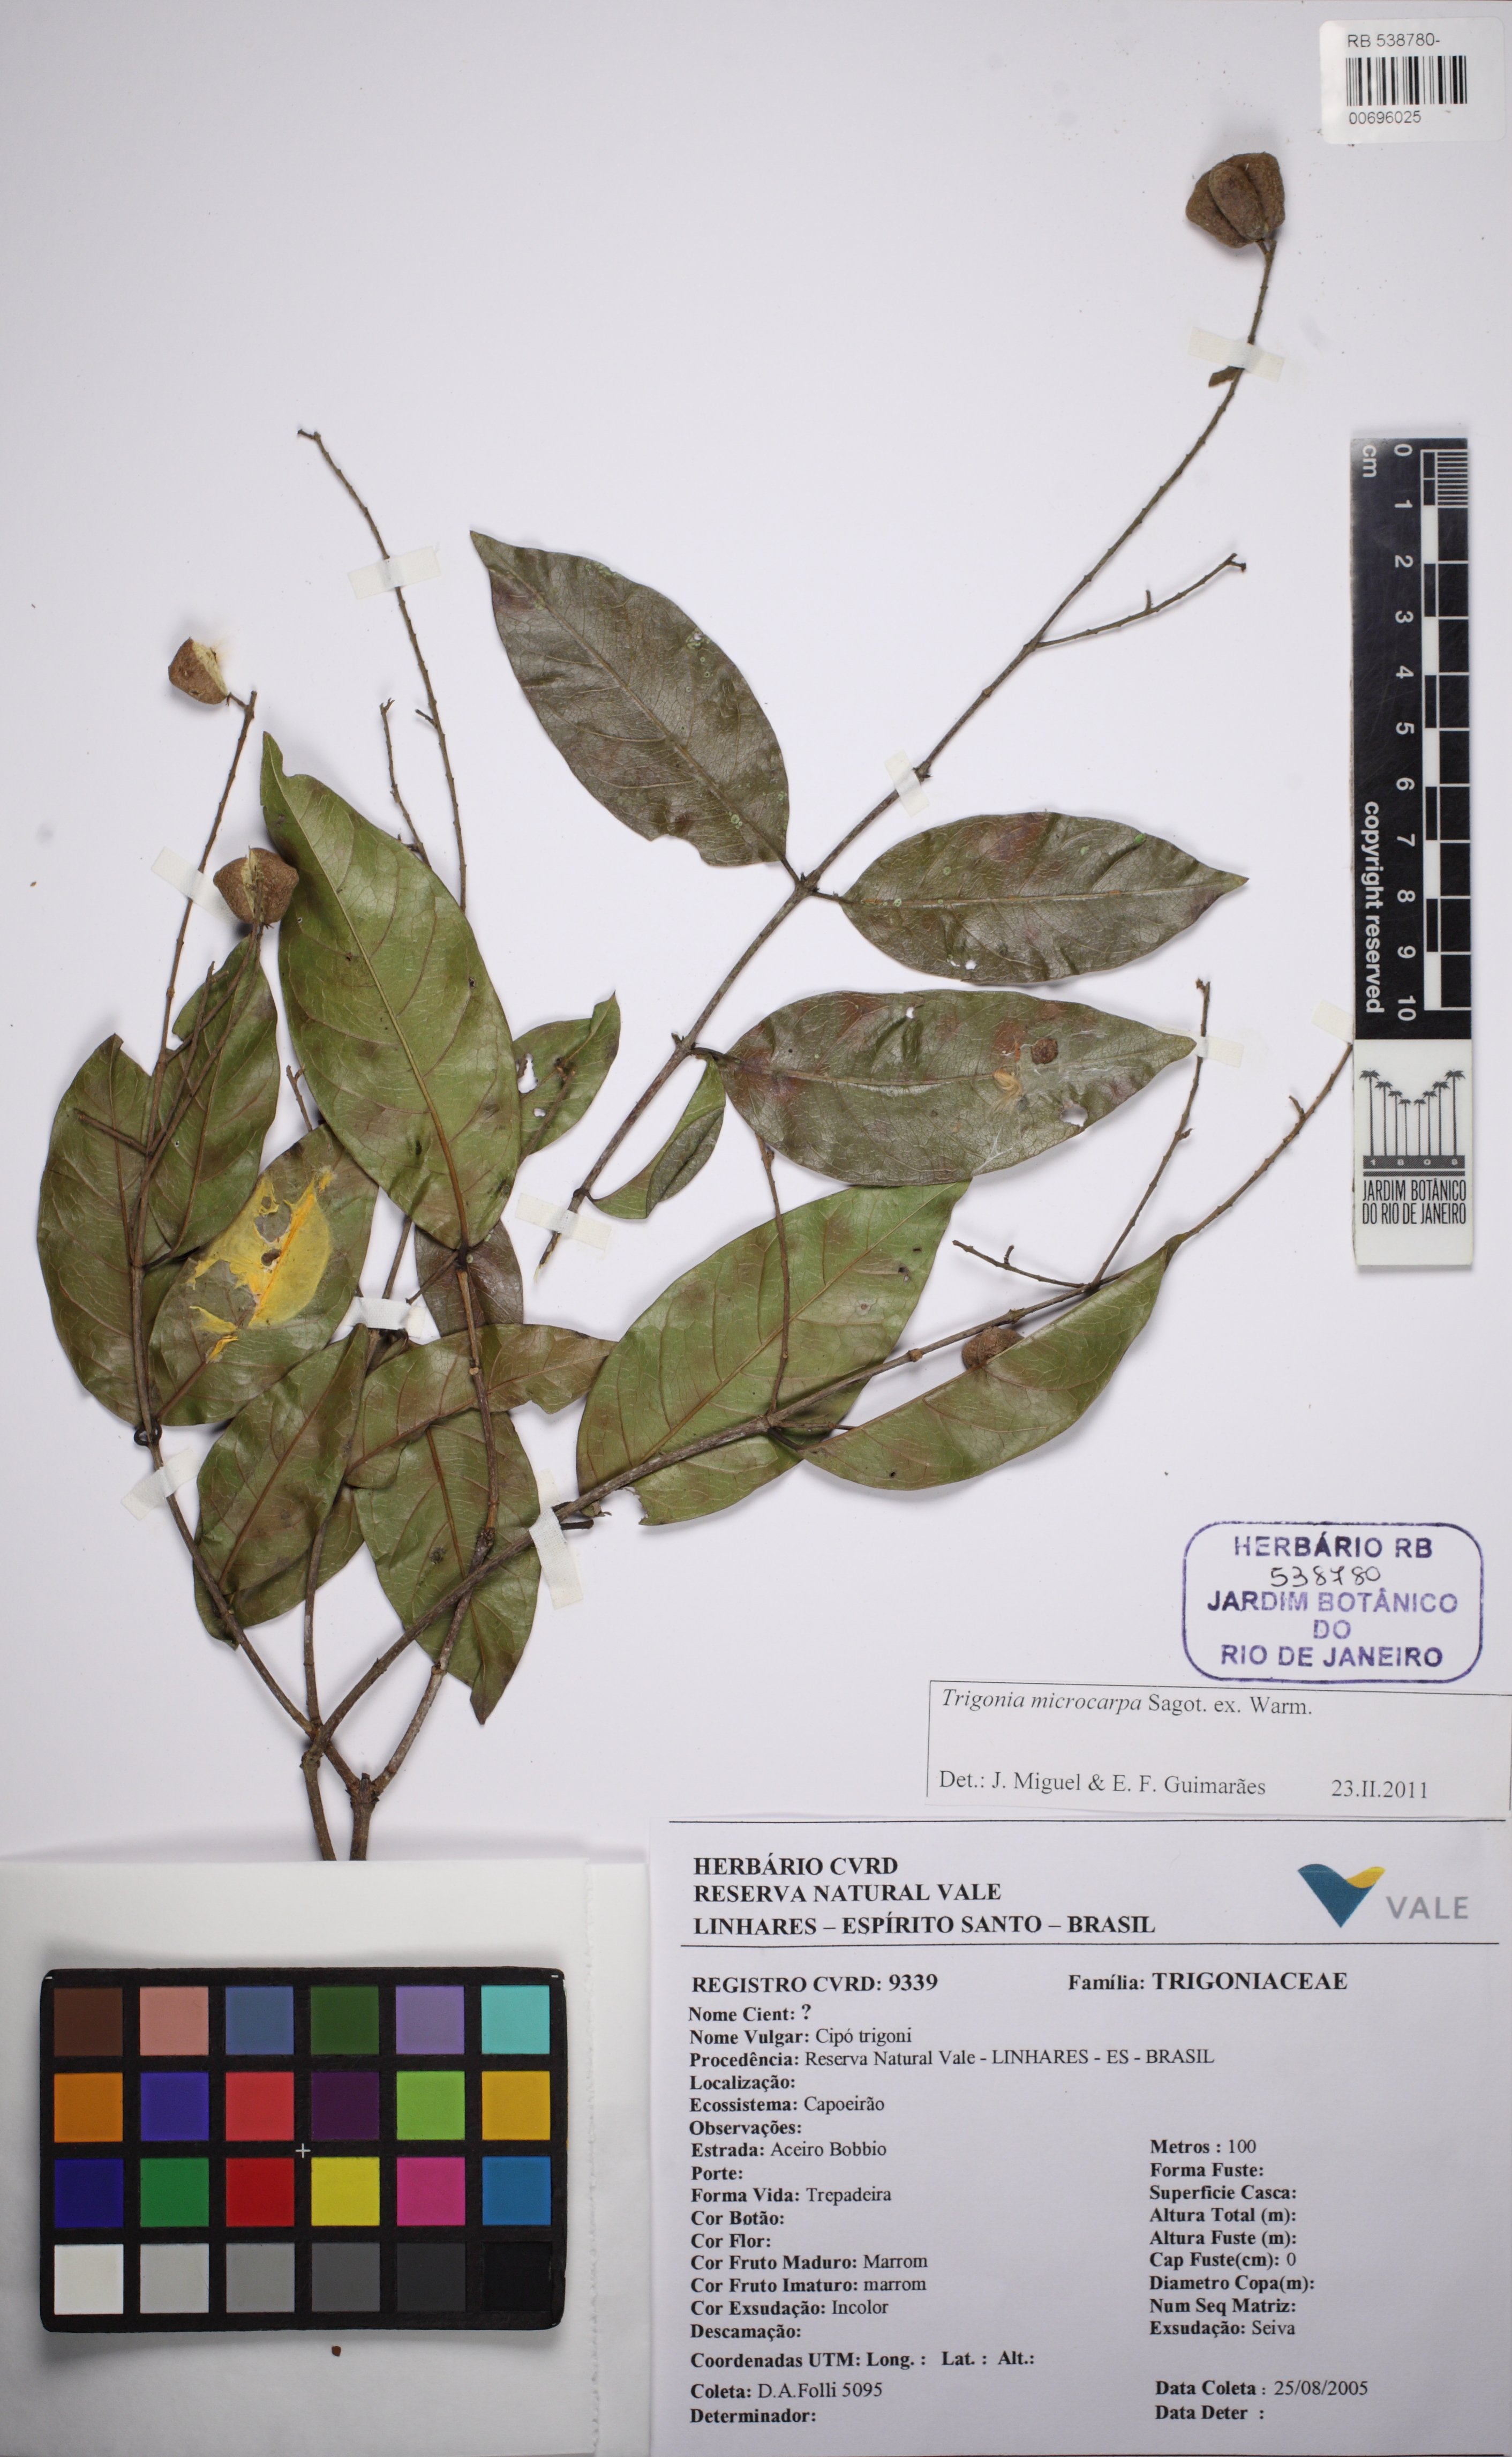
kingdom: Plantae
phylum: Tracheophyta
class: Magnoliopsida
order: Malpighiales
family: Trigoniaceae
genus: Trigonia
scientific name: Trigonia microcarpa
